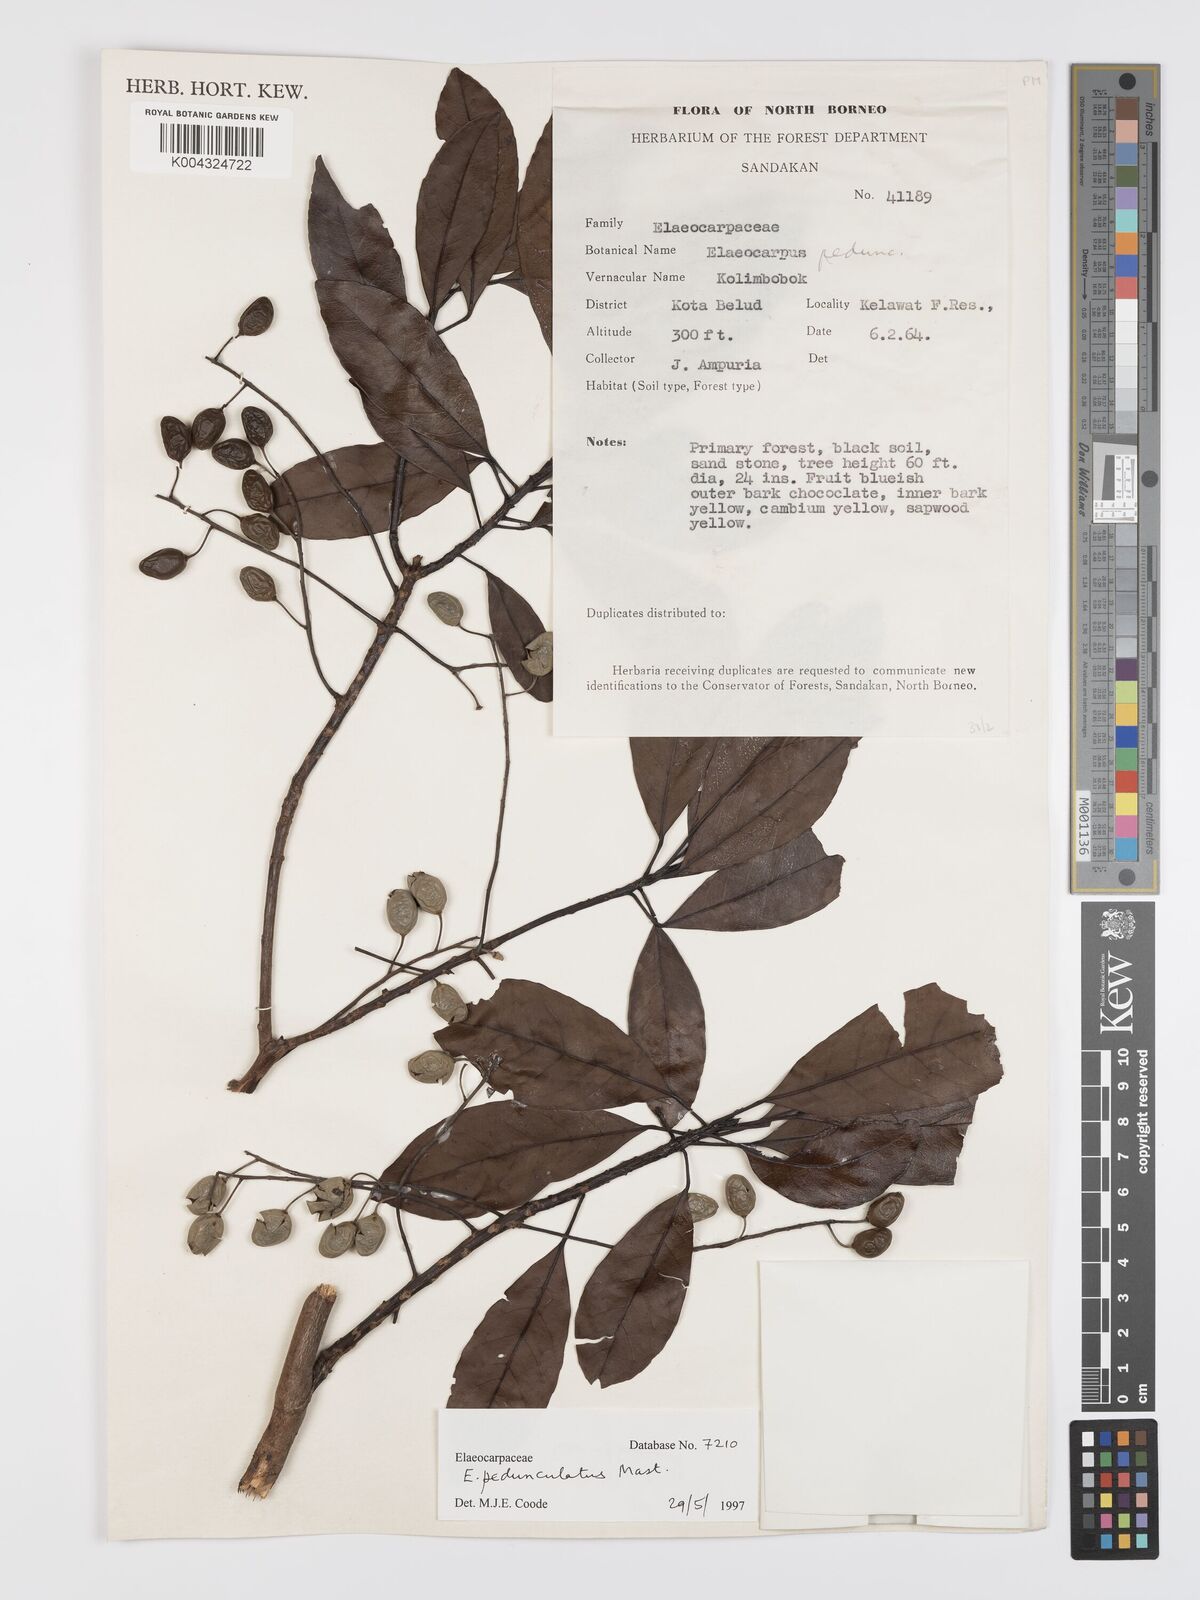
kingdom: Plantae
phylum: Tracheophyta
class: Magnoliopsida
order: Oxalidales
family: Elaeocarpaceae
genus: Elaeocarpus
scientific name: Elaeocarpus pedunculatus
